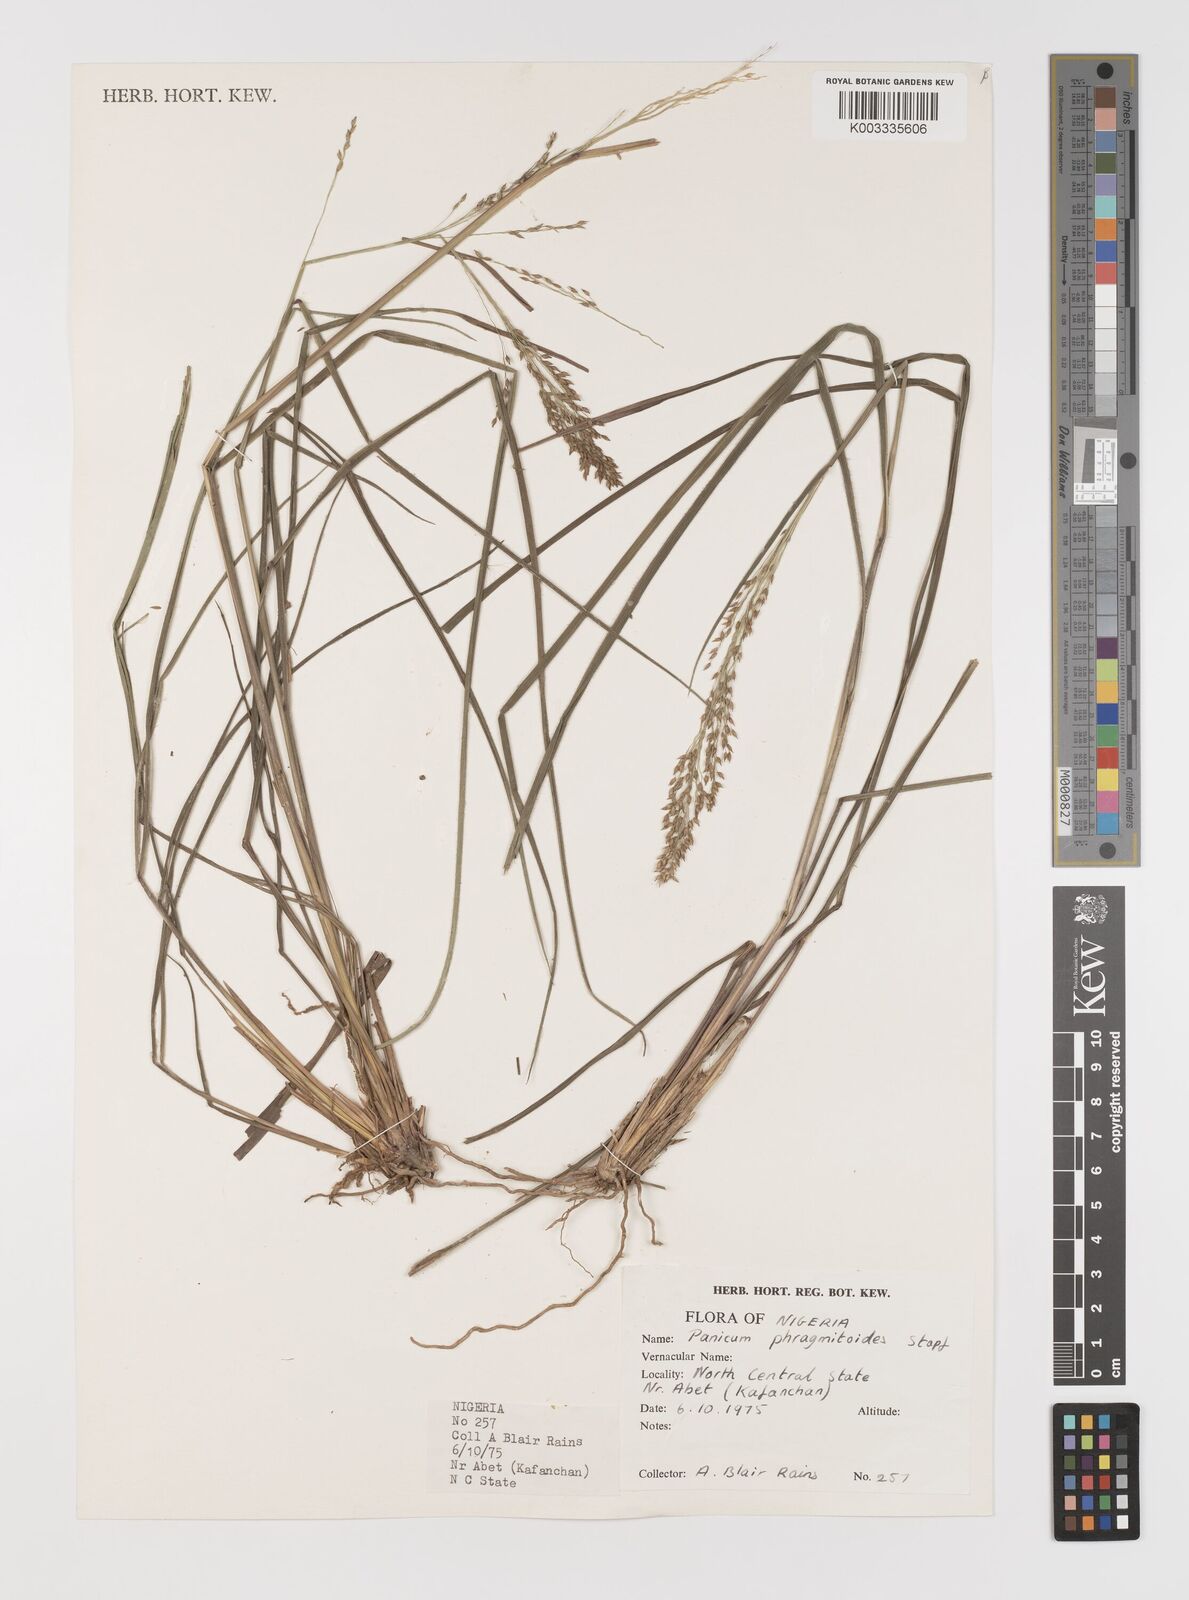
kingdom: Plantae
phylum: Tracheophyta
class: Liliopsida
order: Poales
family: Poaceae
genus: Panicum
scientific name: Panicum phragmitoides
